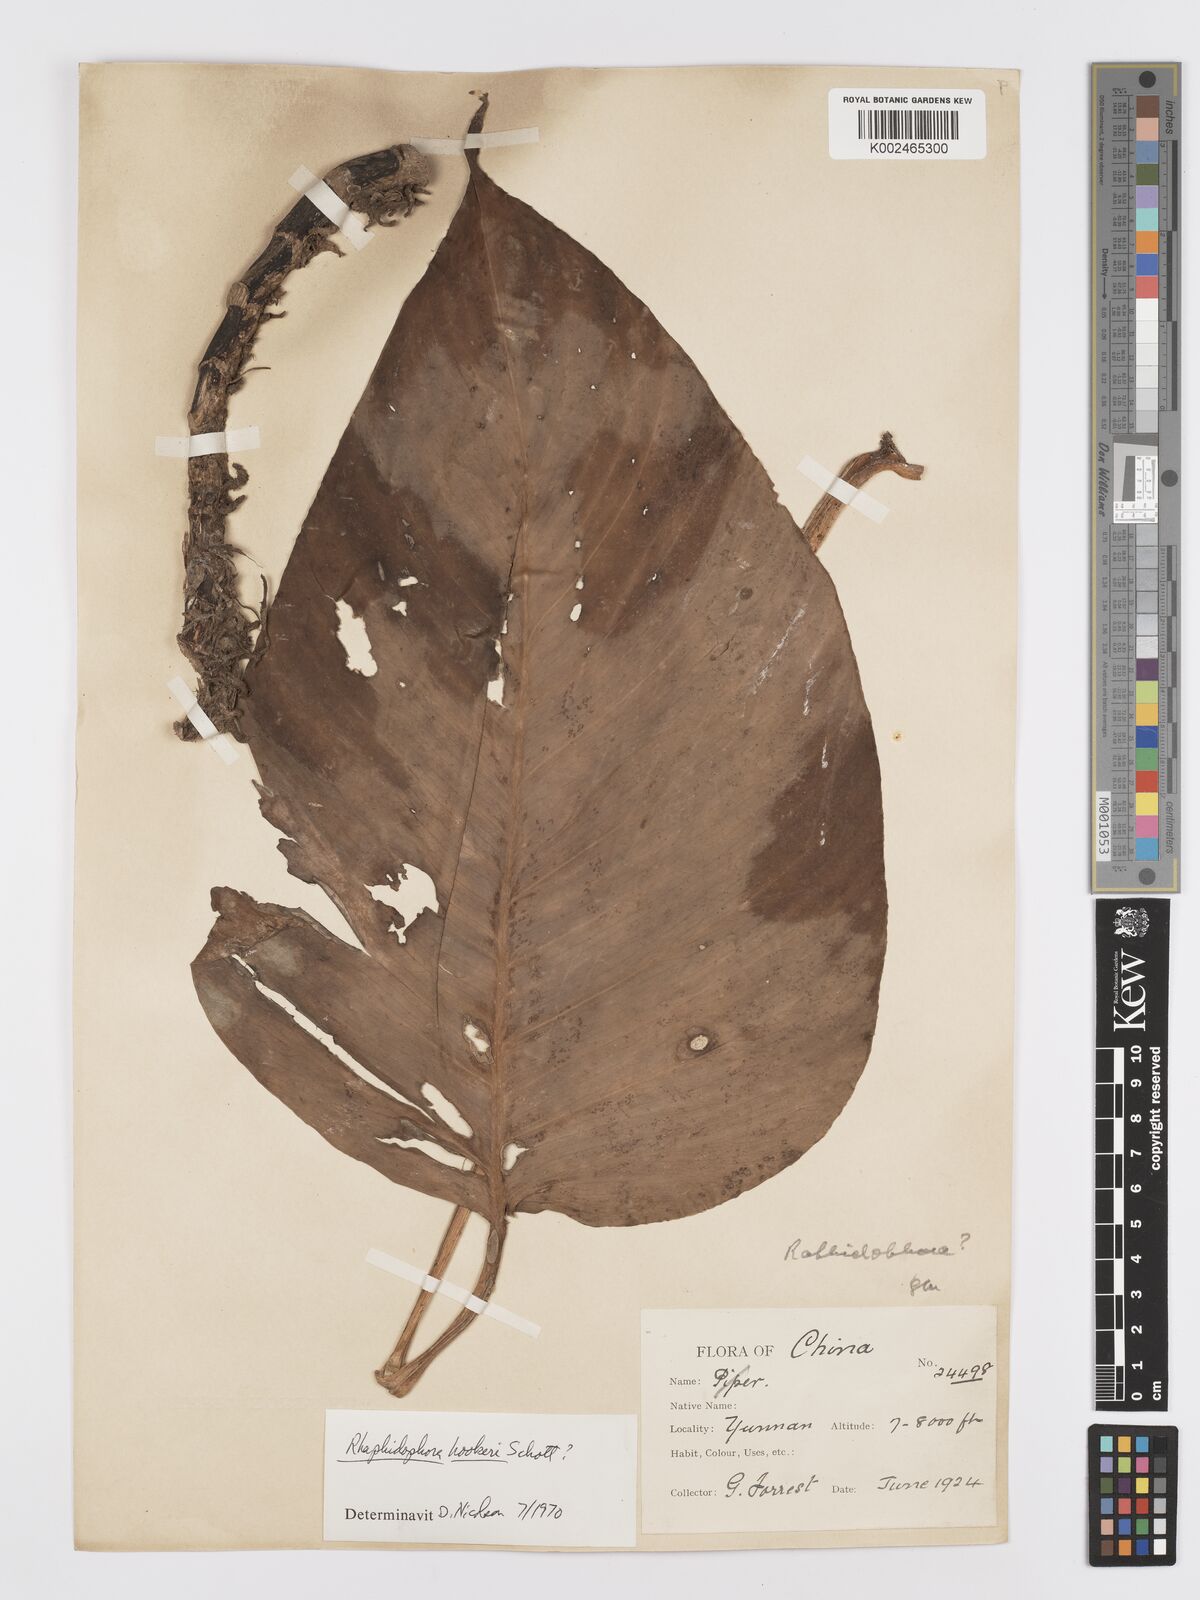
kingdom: Plantae
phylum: Tracheophyta
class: Liliopsida
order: Alismatales
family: Araceae
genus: Rhaphidophora
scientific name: Rhaphidophora hookeri
